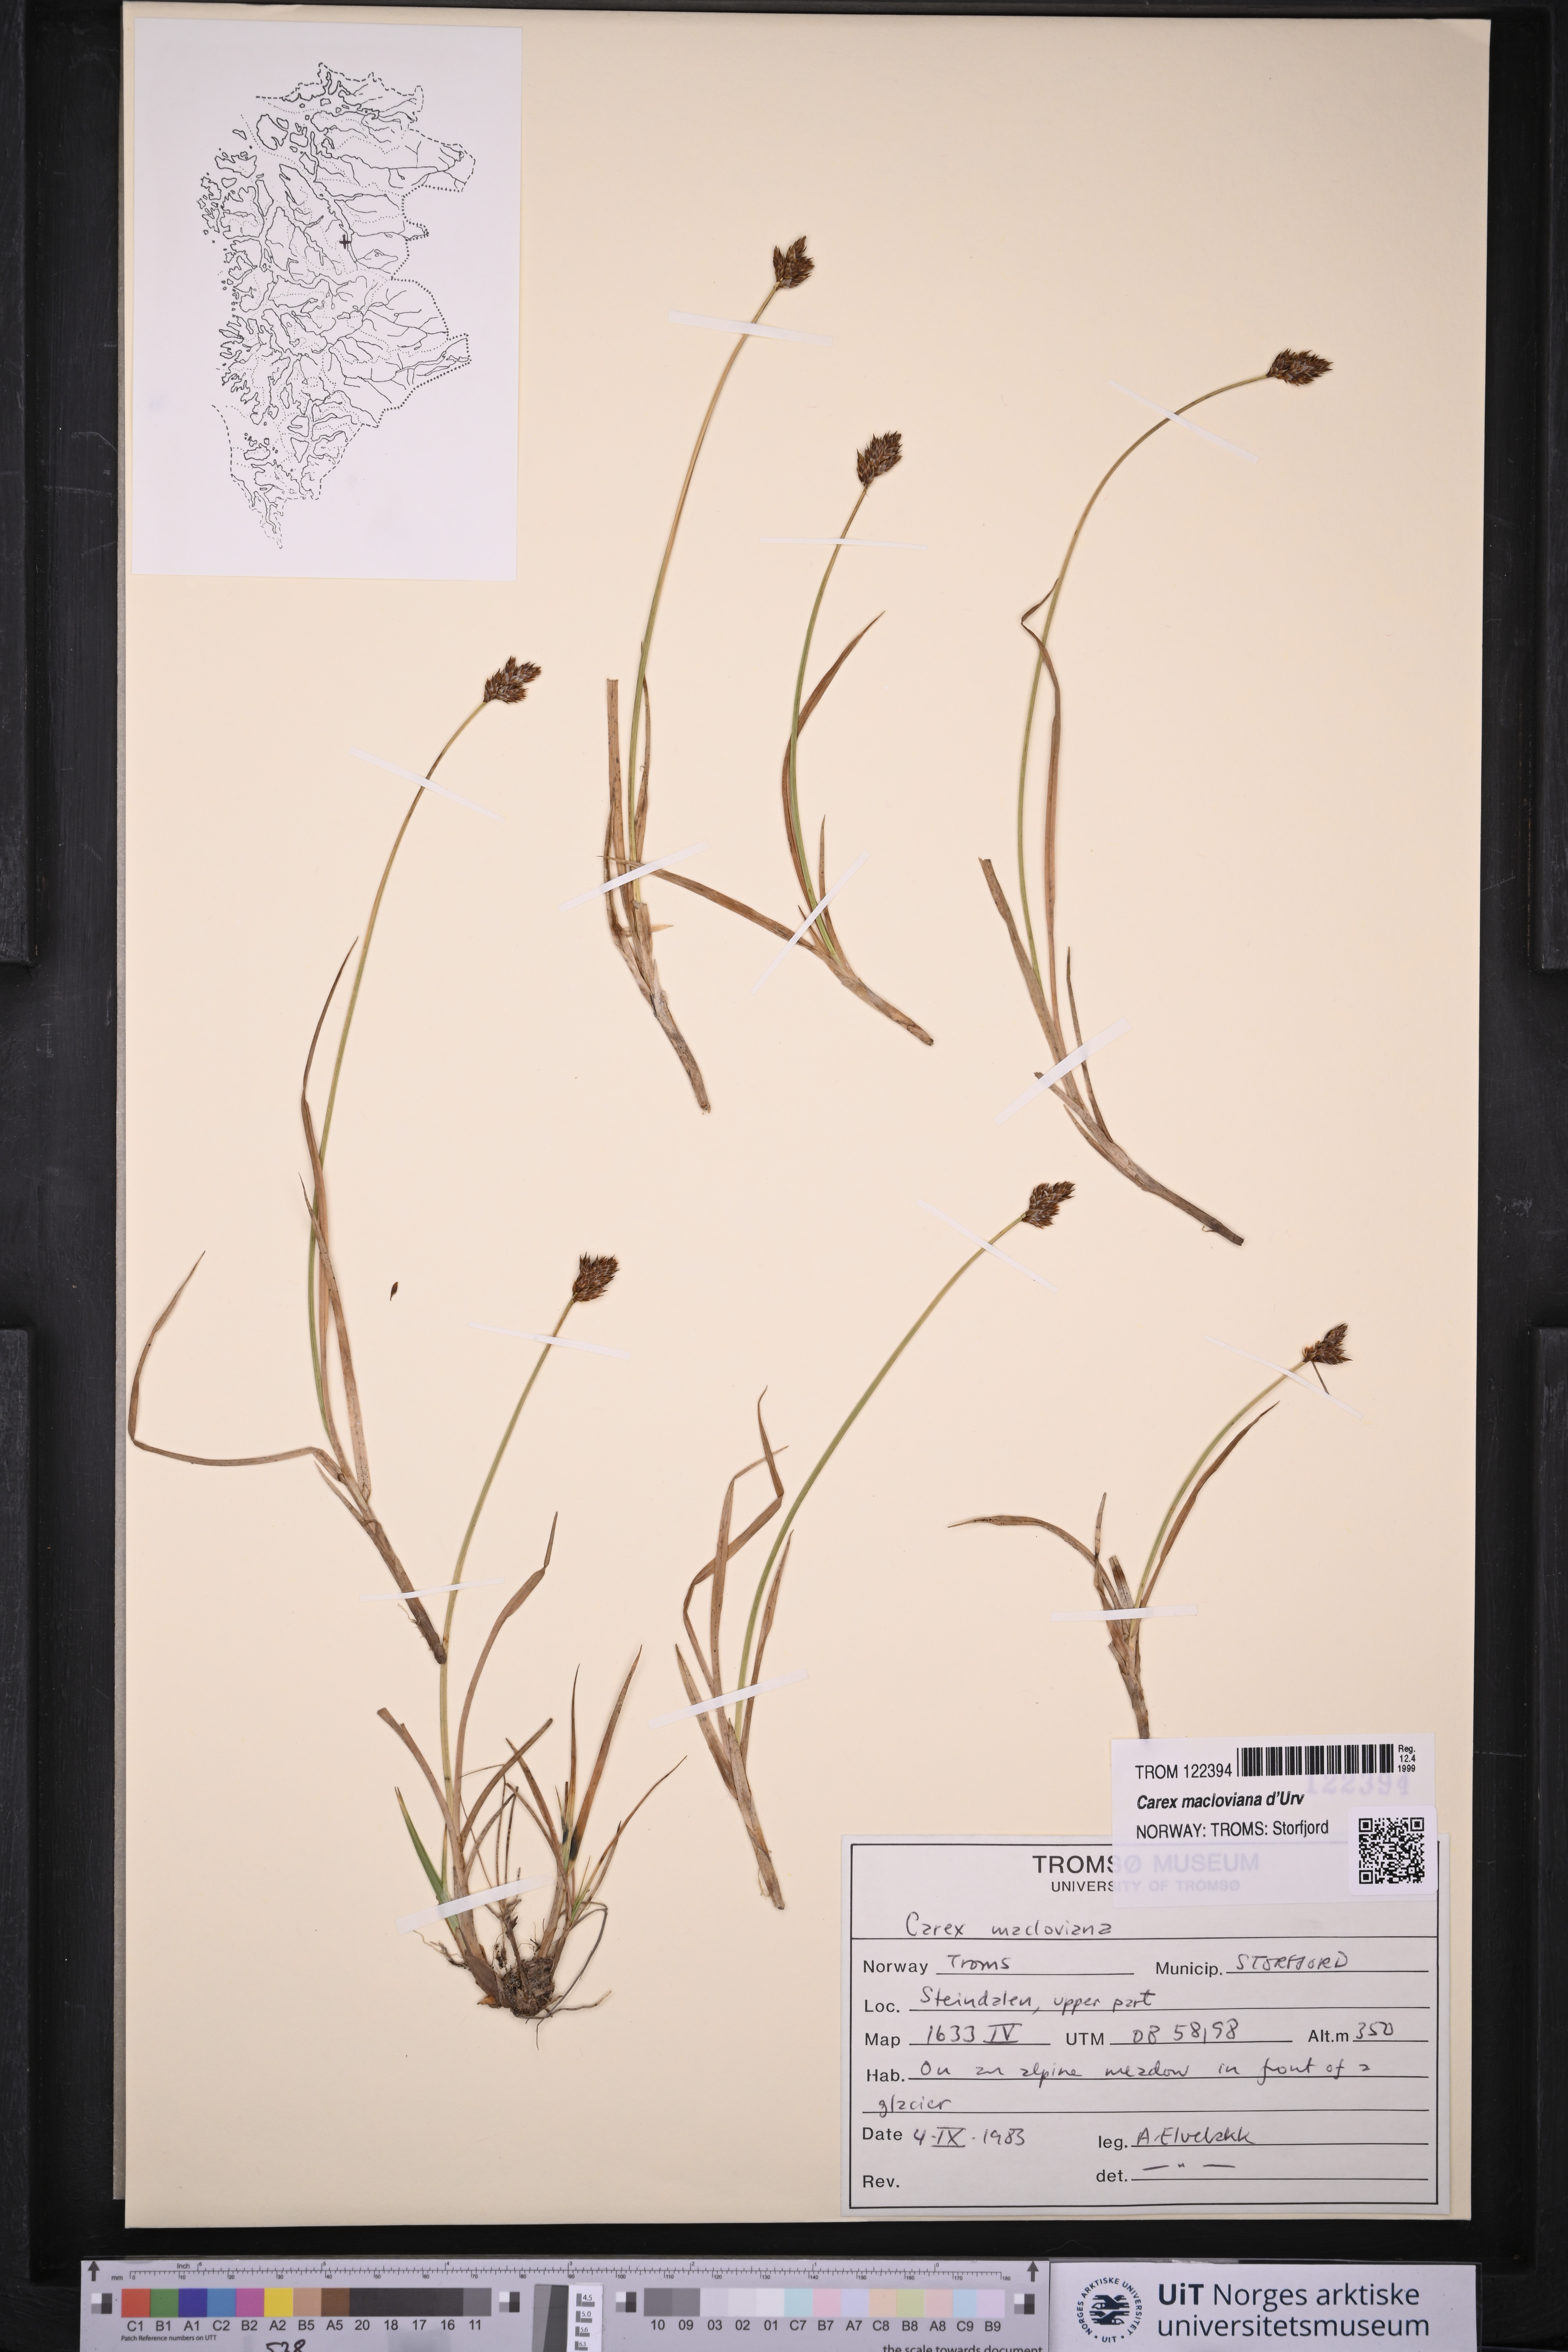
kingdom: Plantae
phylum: Tracheophyta
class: Liliopsida
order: Poales
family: Cyperaceae
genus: Carex
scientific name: Carex macloviana
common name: Falkland island sedge
